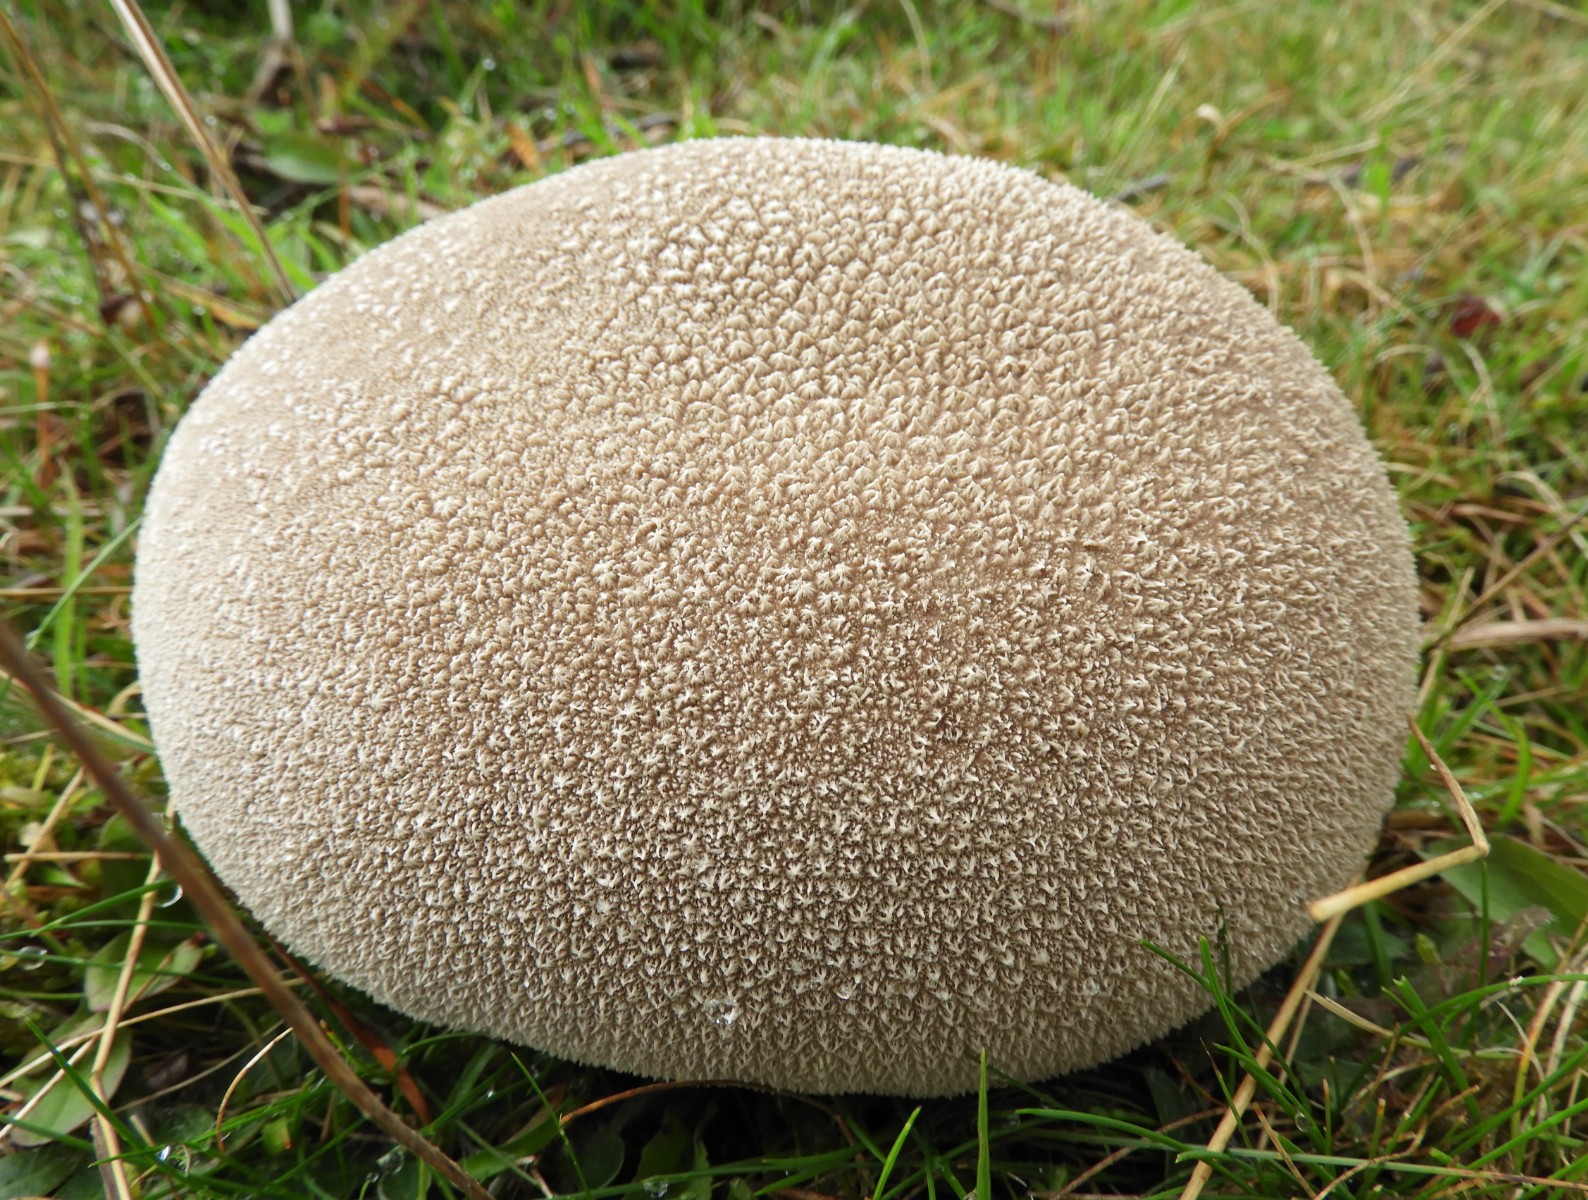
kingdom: Fungi
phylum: Basidiomycota
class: Agaricomycetes
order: Agaricales
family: Lycoperdaceae
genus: Bovistella
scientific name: Bovistella utriformis
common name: skællet støvbold
